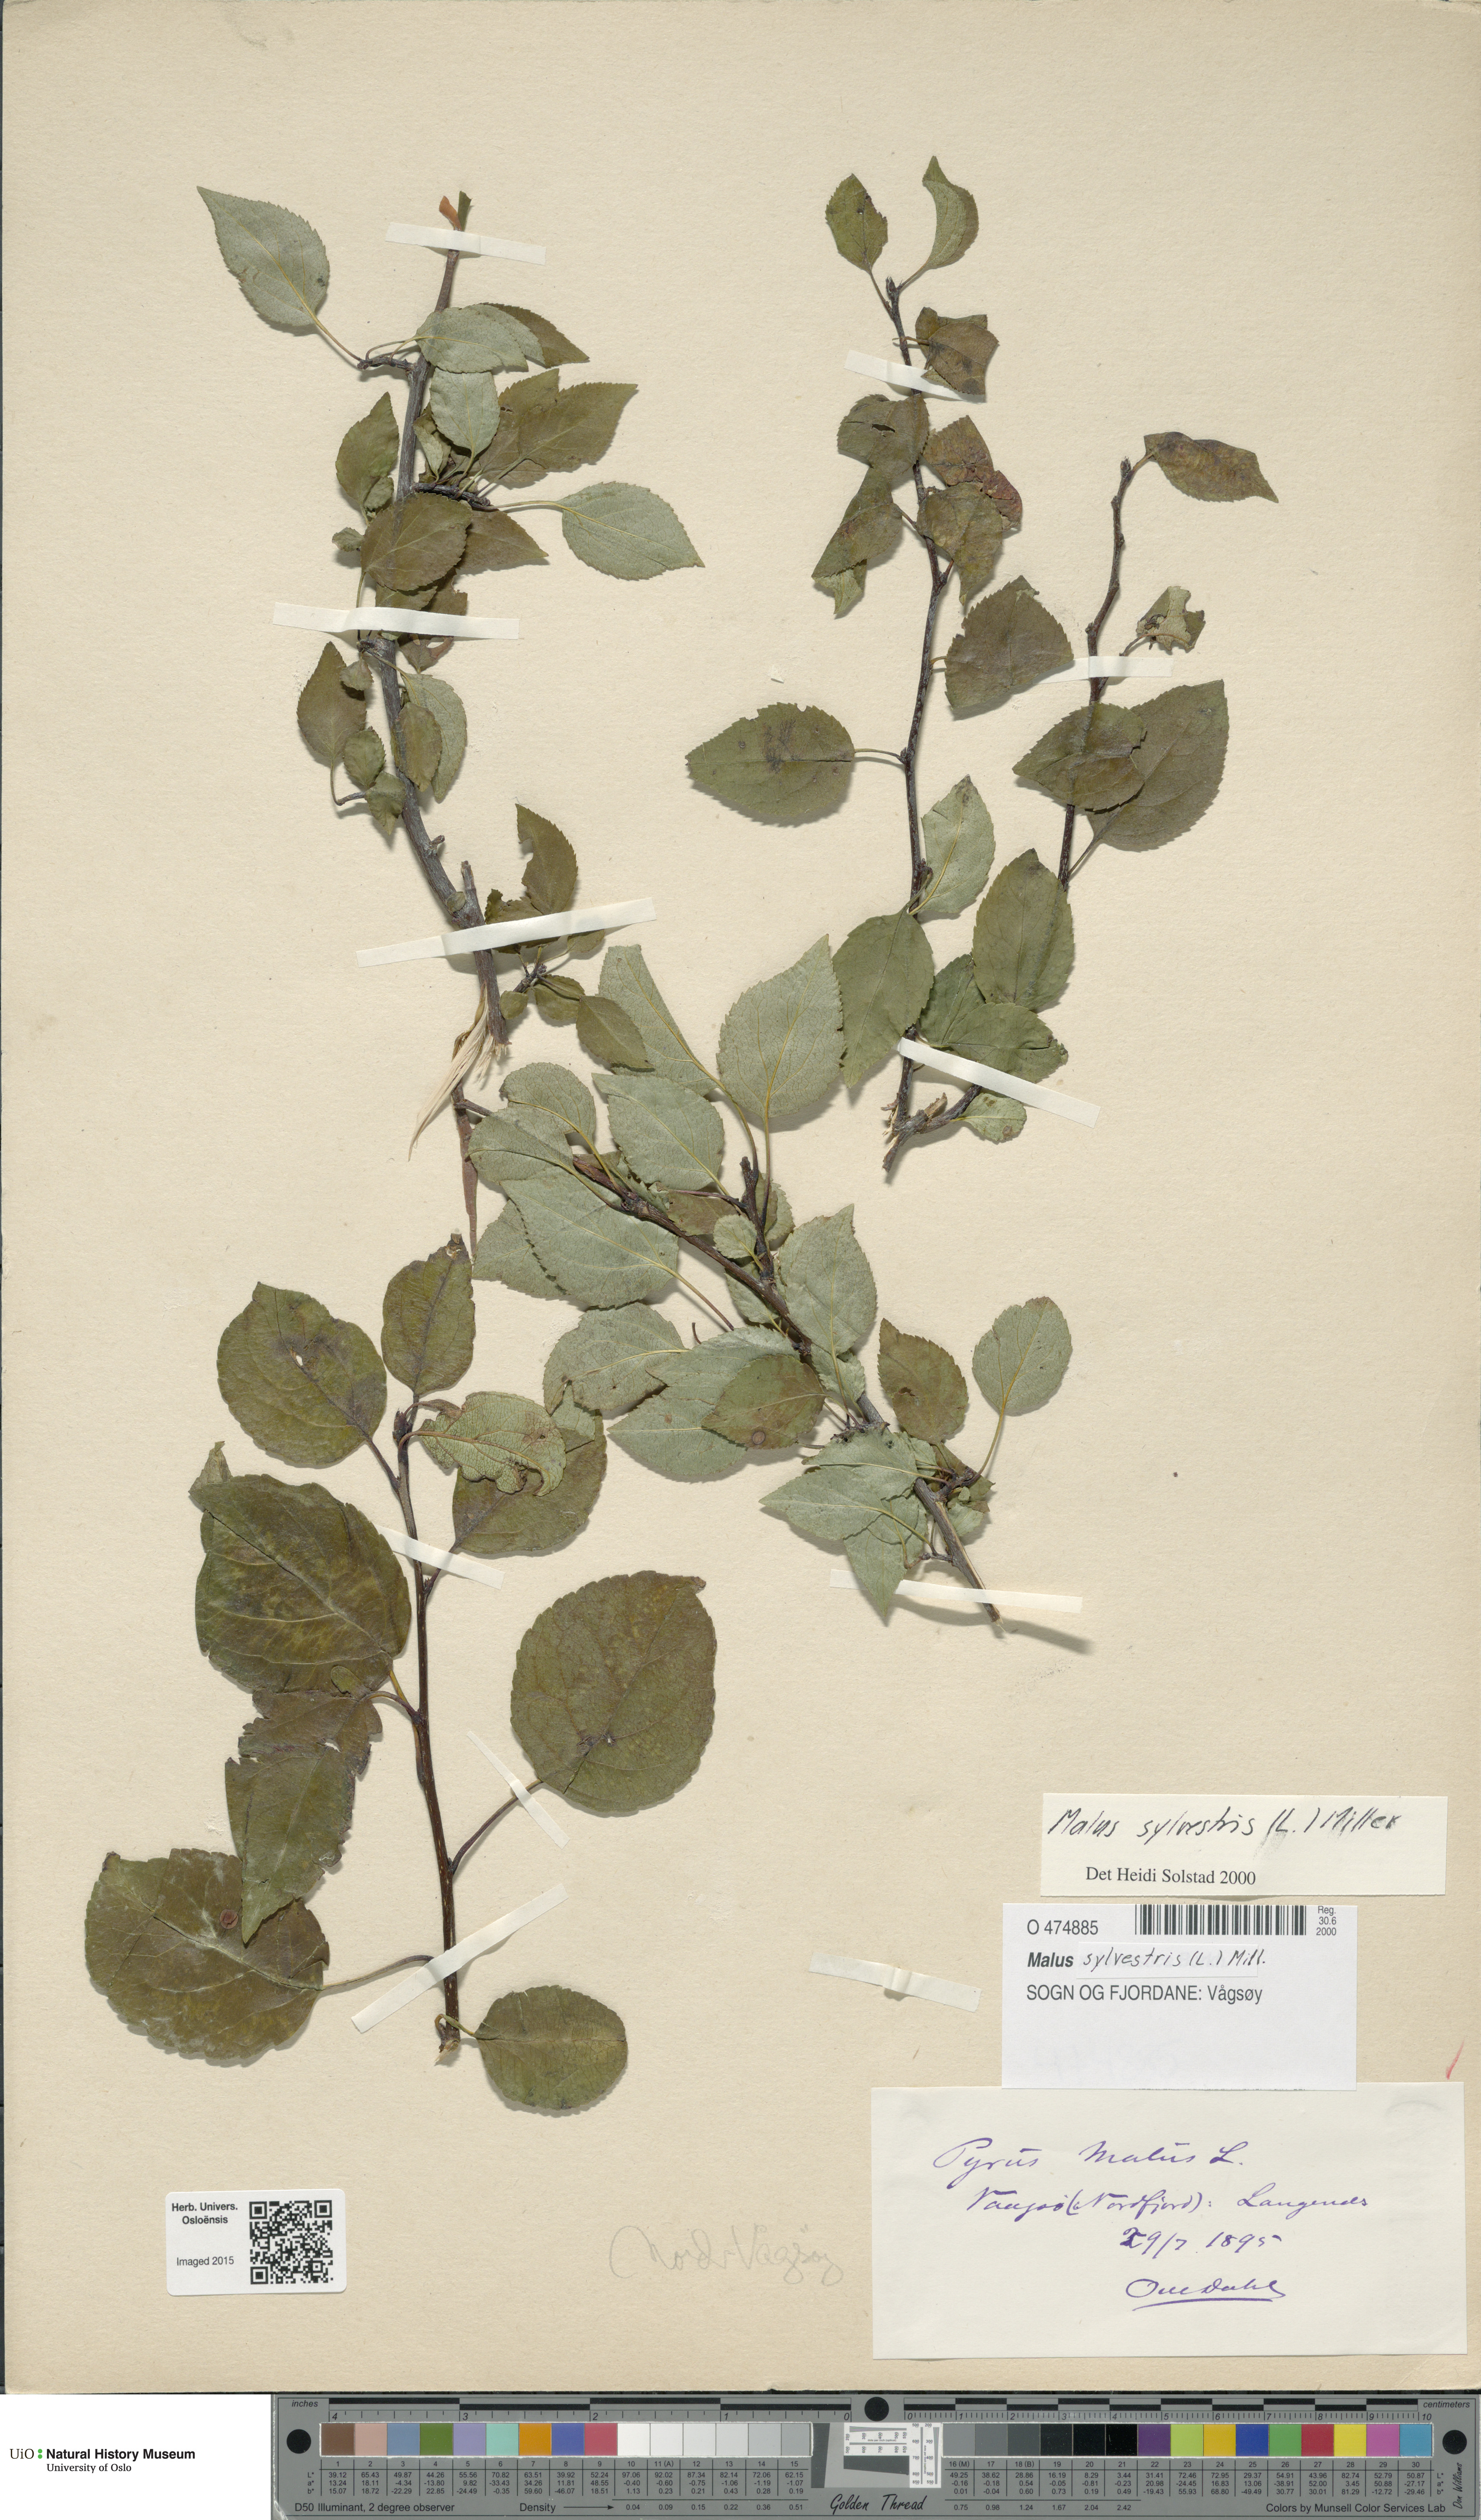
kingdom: Plantae
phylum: Tracheophyta
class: Magnoliopsida
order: Rosales
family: Rosaceae
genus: Malus
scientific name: Malus sylvestris
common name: Crab apple
